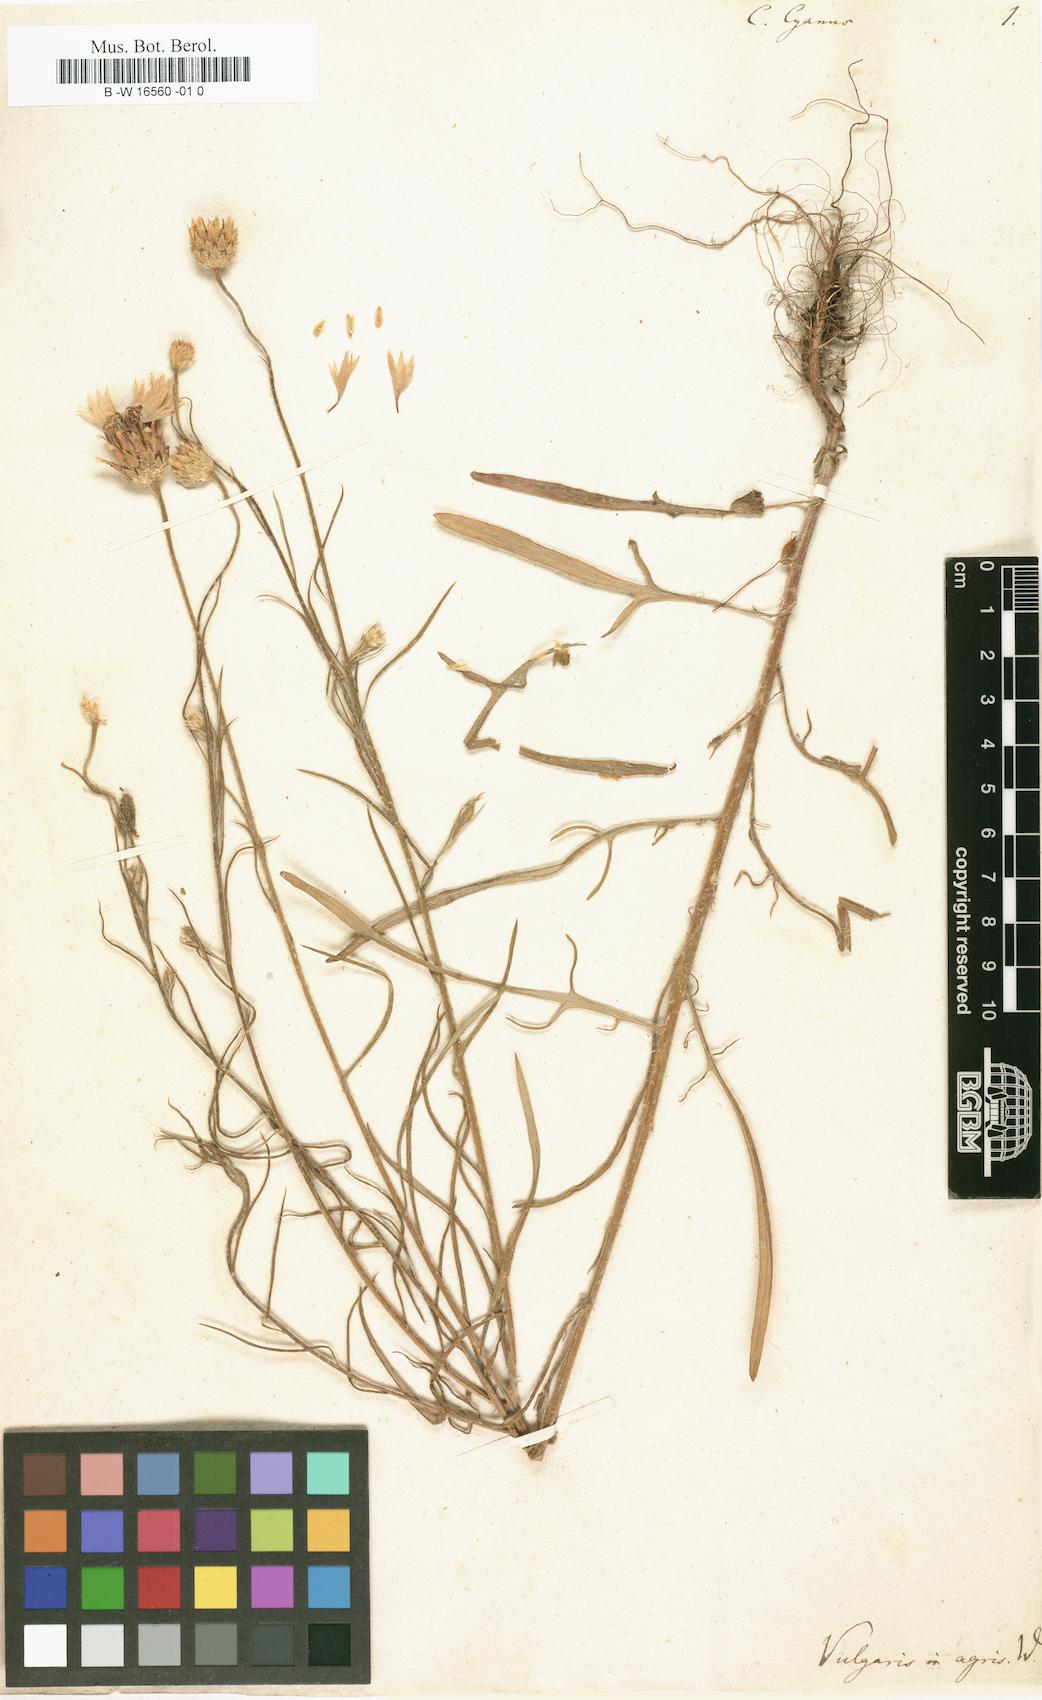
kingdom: Plantae
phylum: Tracheophyta
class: Magnoliopsida
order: Asterales
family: Asteraceae
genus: Centaurea
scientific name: Centaurea cyanus
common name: Cornflower
